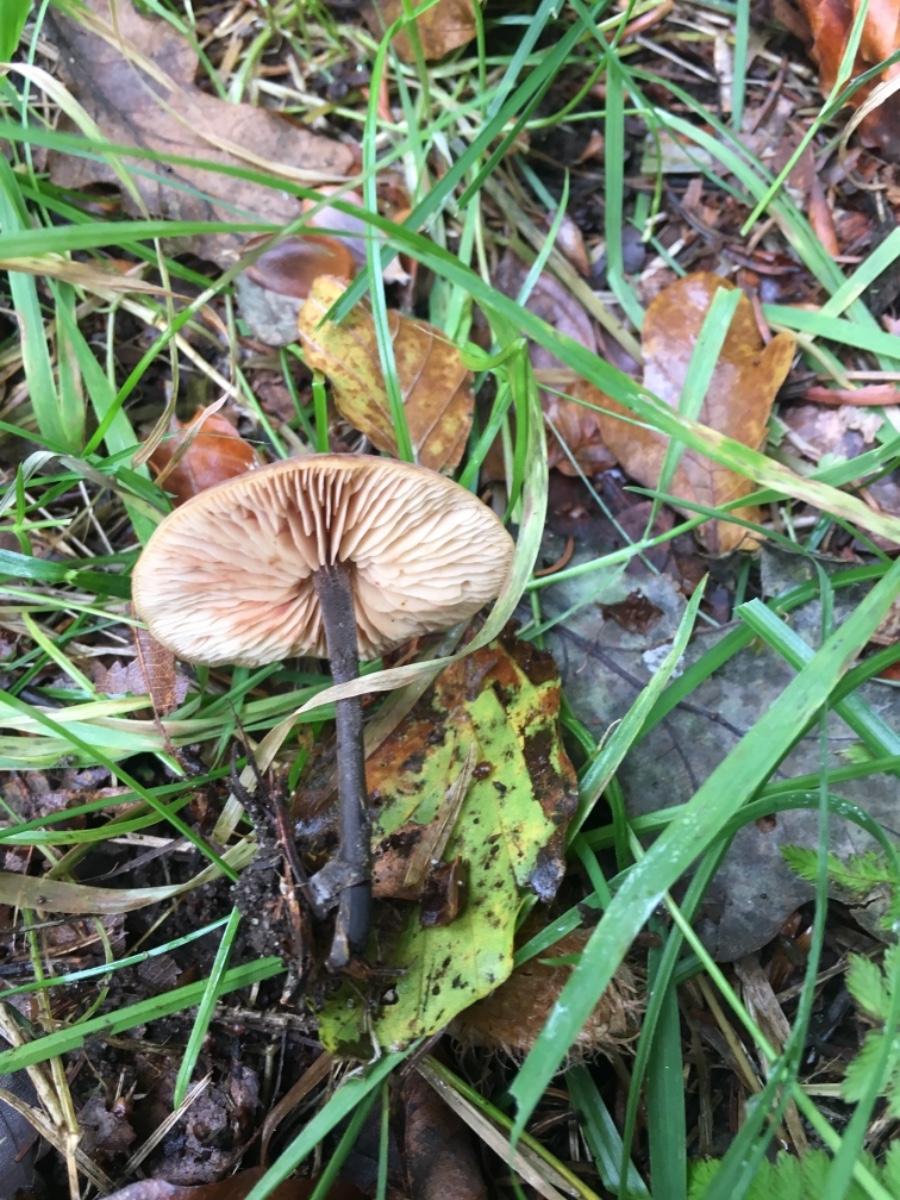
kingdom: Fungi
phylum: Basidiomycota
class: Agaricomycetes
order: Agaricales
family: Macrocystidiaceae
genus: Macrocystidia
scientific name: Macrocystidia
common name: agurkehat
